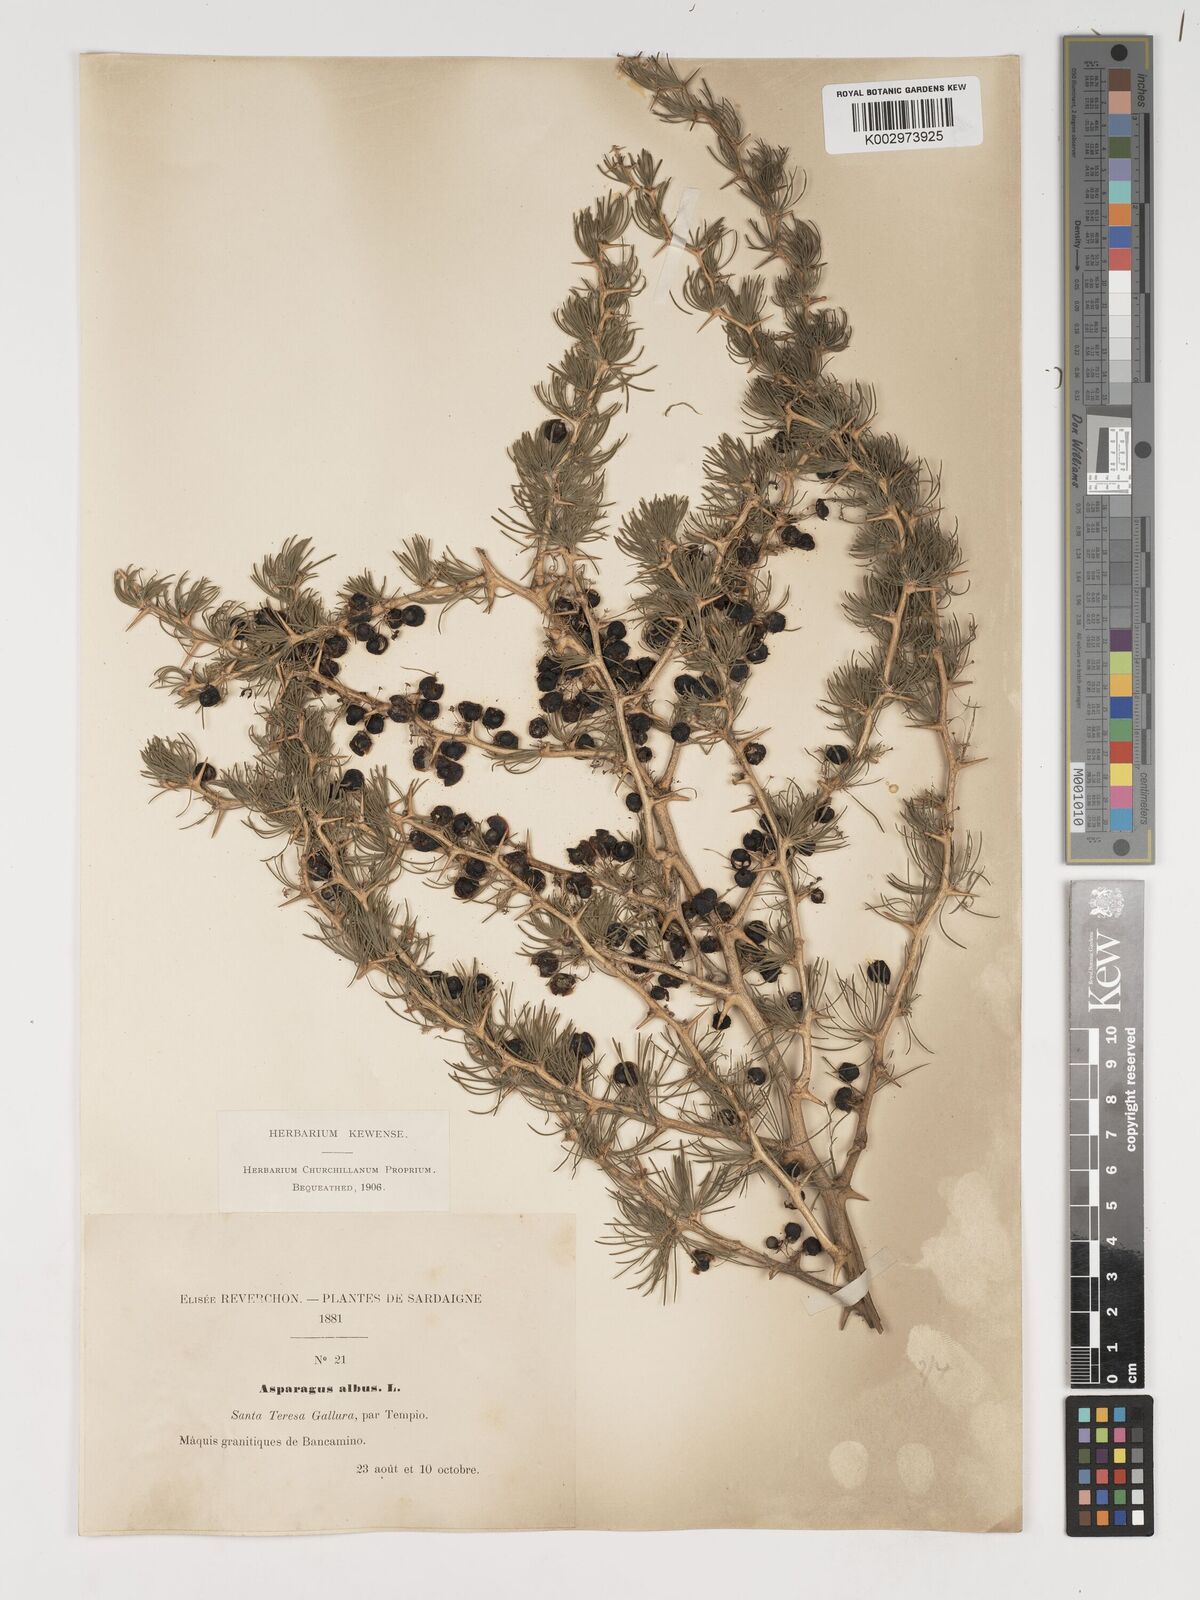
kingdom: Plantae
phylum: Tracheophyta
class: Liliopsida
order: Asparagales
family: Asparagaceae
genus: Asparagus
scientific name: Asparagus albus
